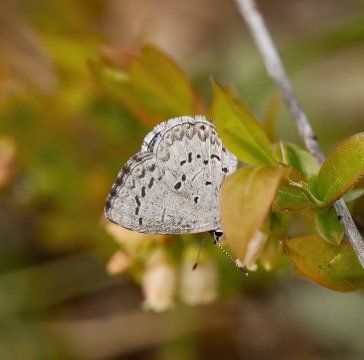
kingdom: Animalia
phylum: Arthropoda
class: Insecta
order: Lepidoptera
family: Lycaenidae
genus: Celastrina
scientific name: Celastrina ladon
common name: Spring Azure
